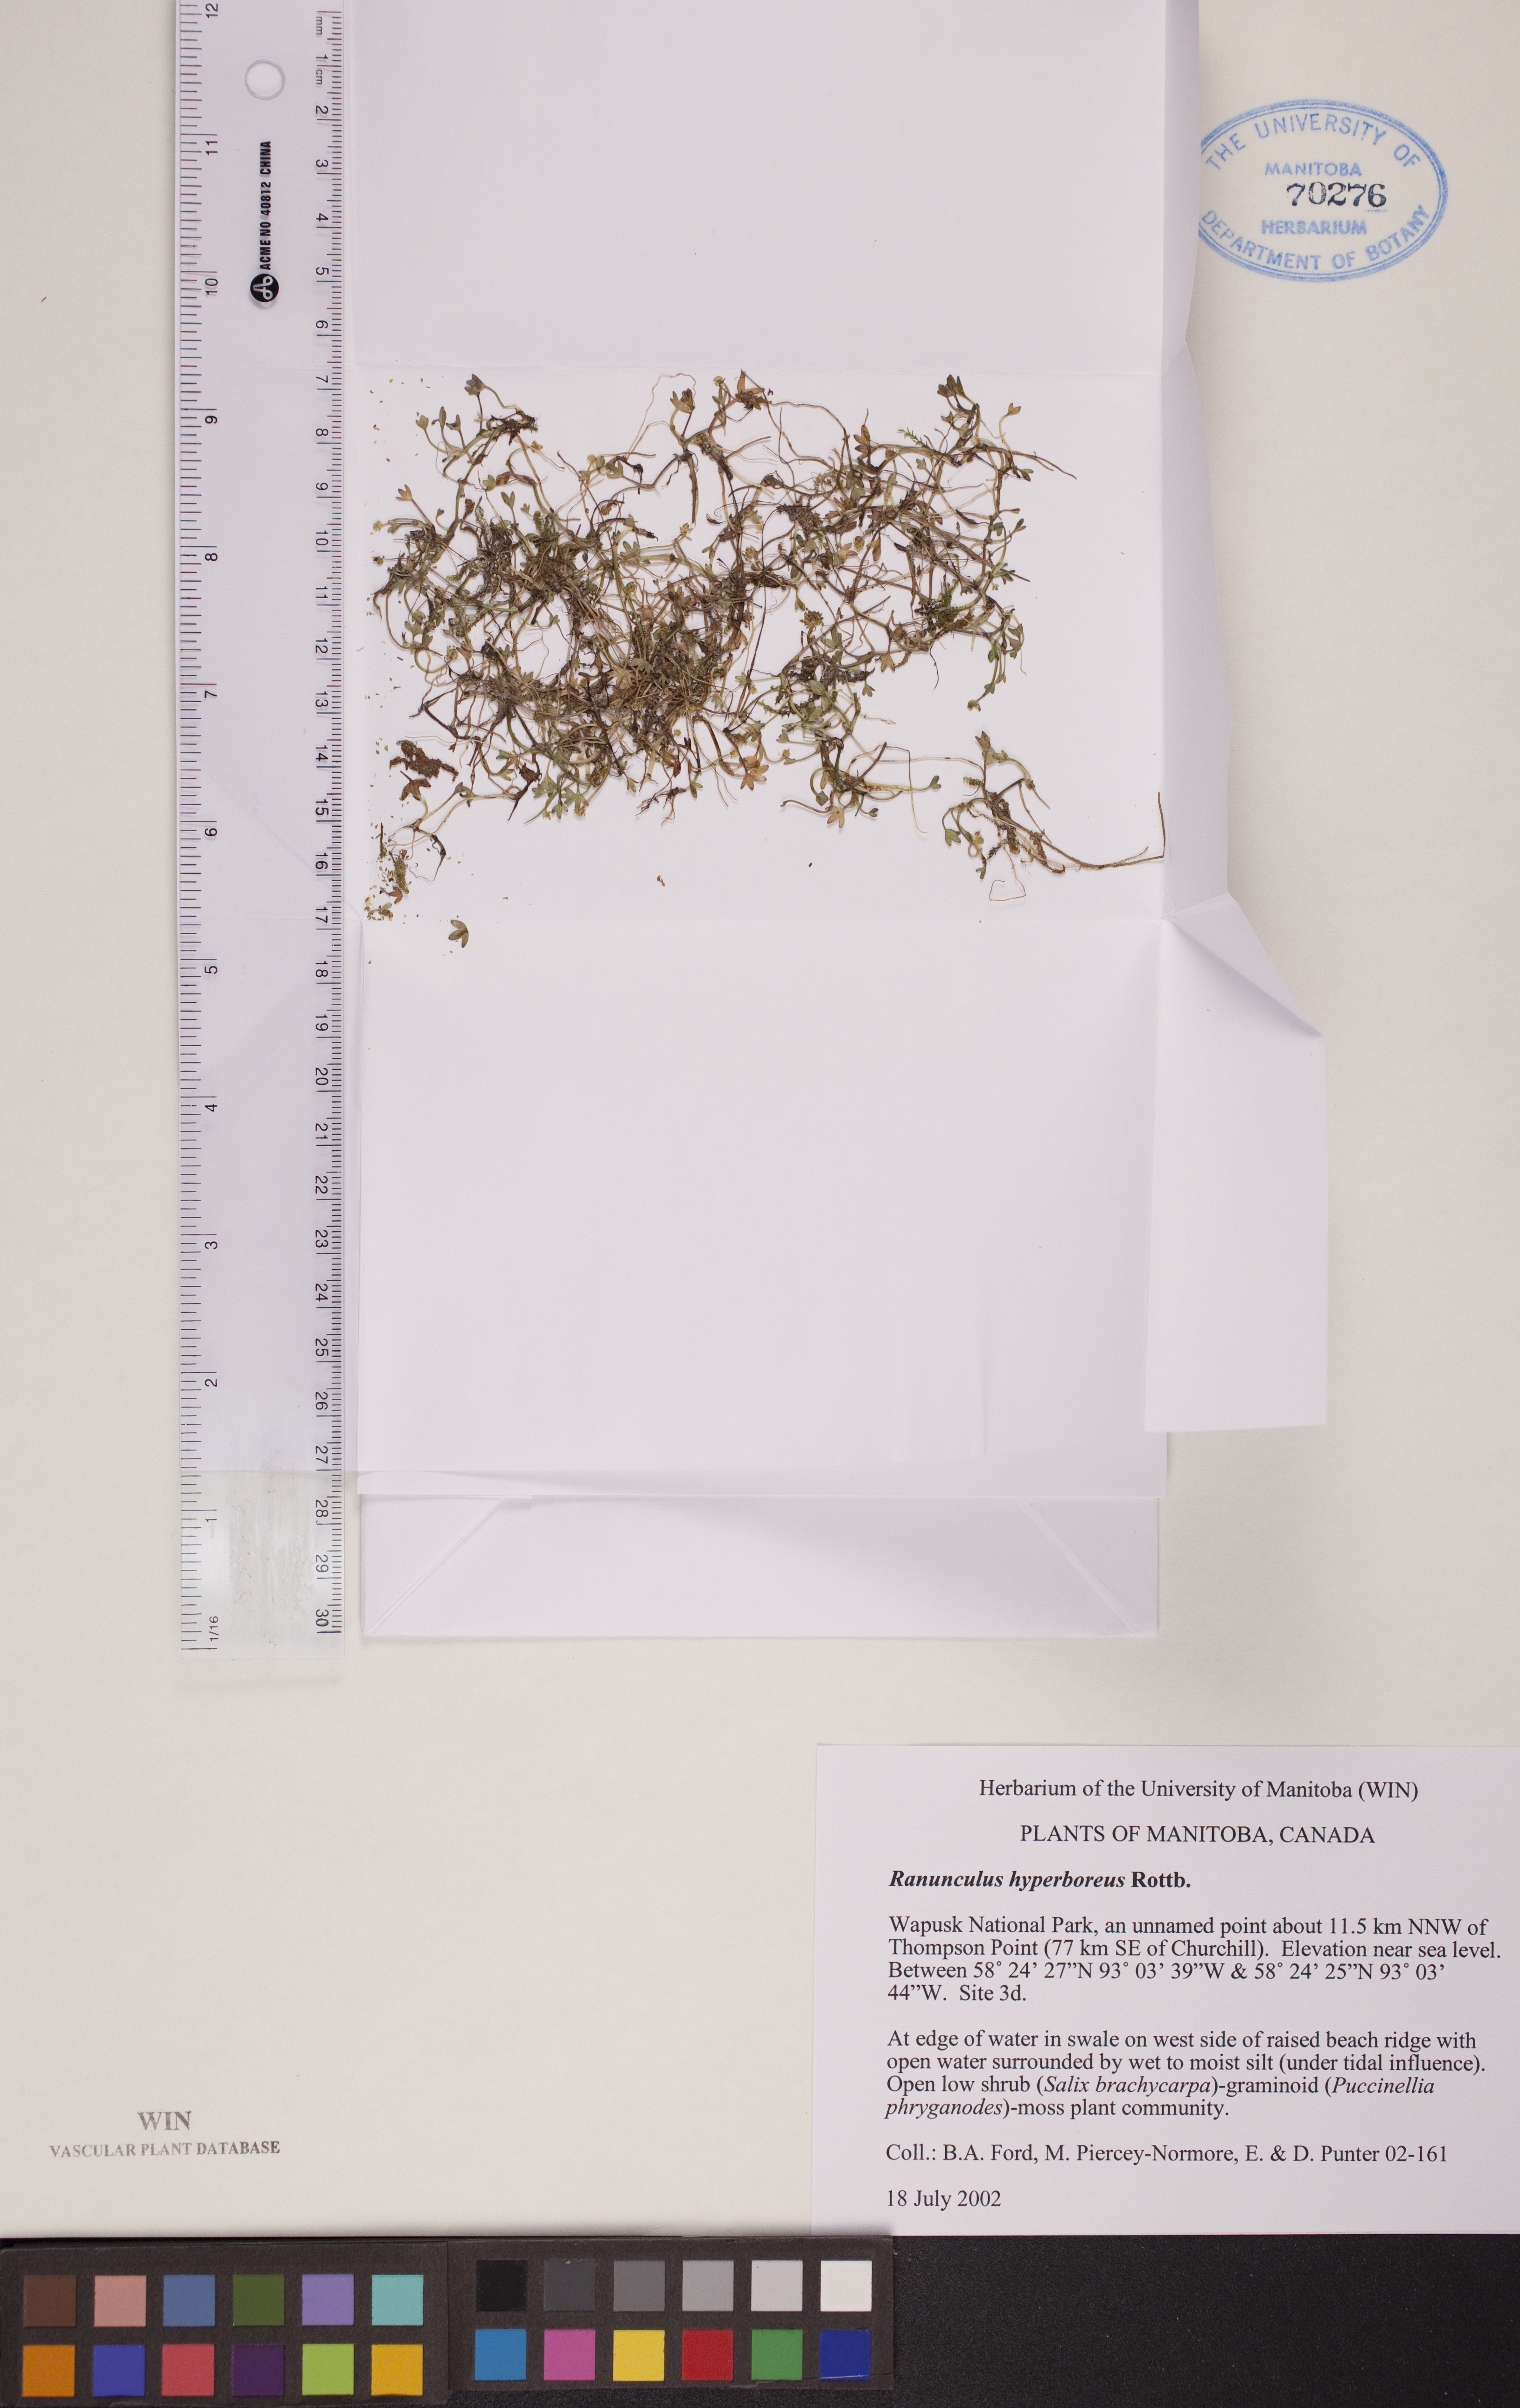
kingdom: Plantae
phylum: Tracheophyta
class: Magnoliopsida
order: Ranunculales
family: Ranunculaceae
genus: Ranunculus
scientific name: Ranunculus hyperboreus
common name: Arctic buttercup
